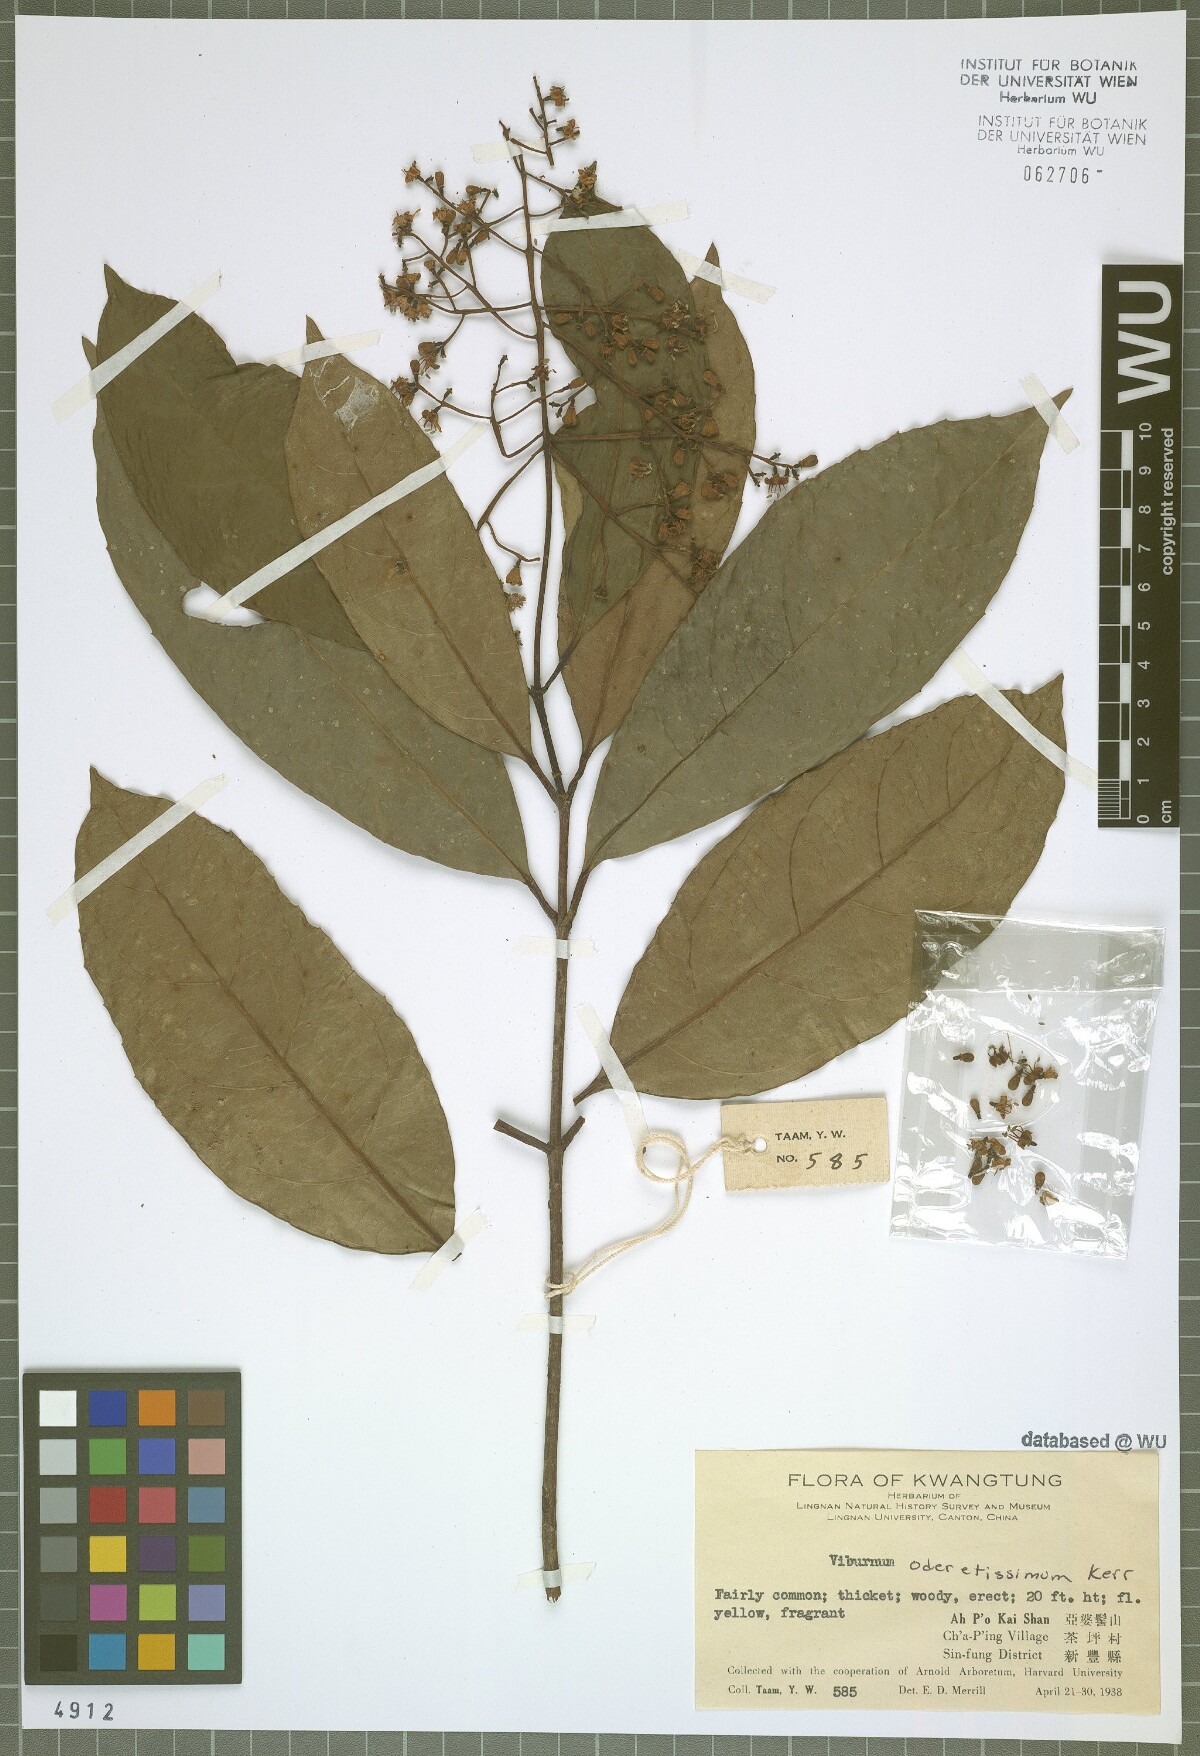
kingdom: Plantae
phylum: Tracheophyta
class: Magnoliopsida
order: Dipsacales
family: Viburnaceae
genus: Viburnum
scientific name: Viburnum odoratissimum
